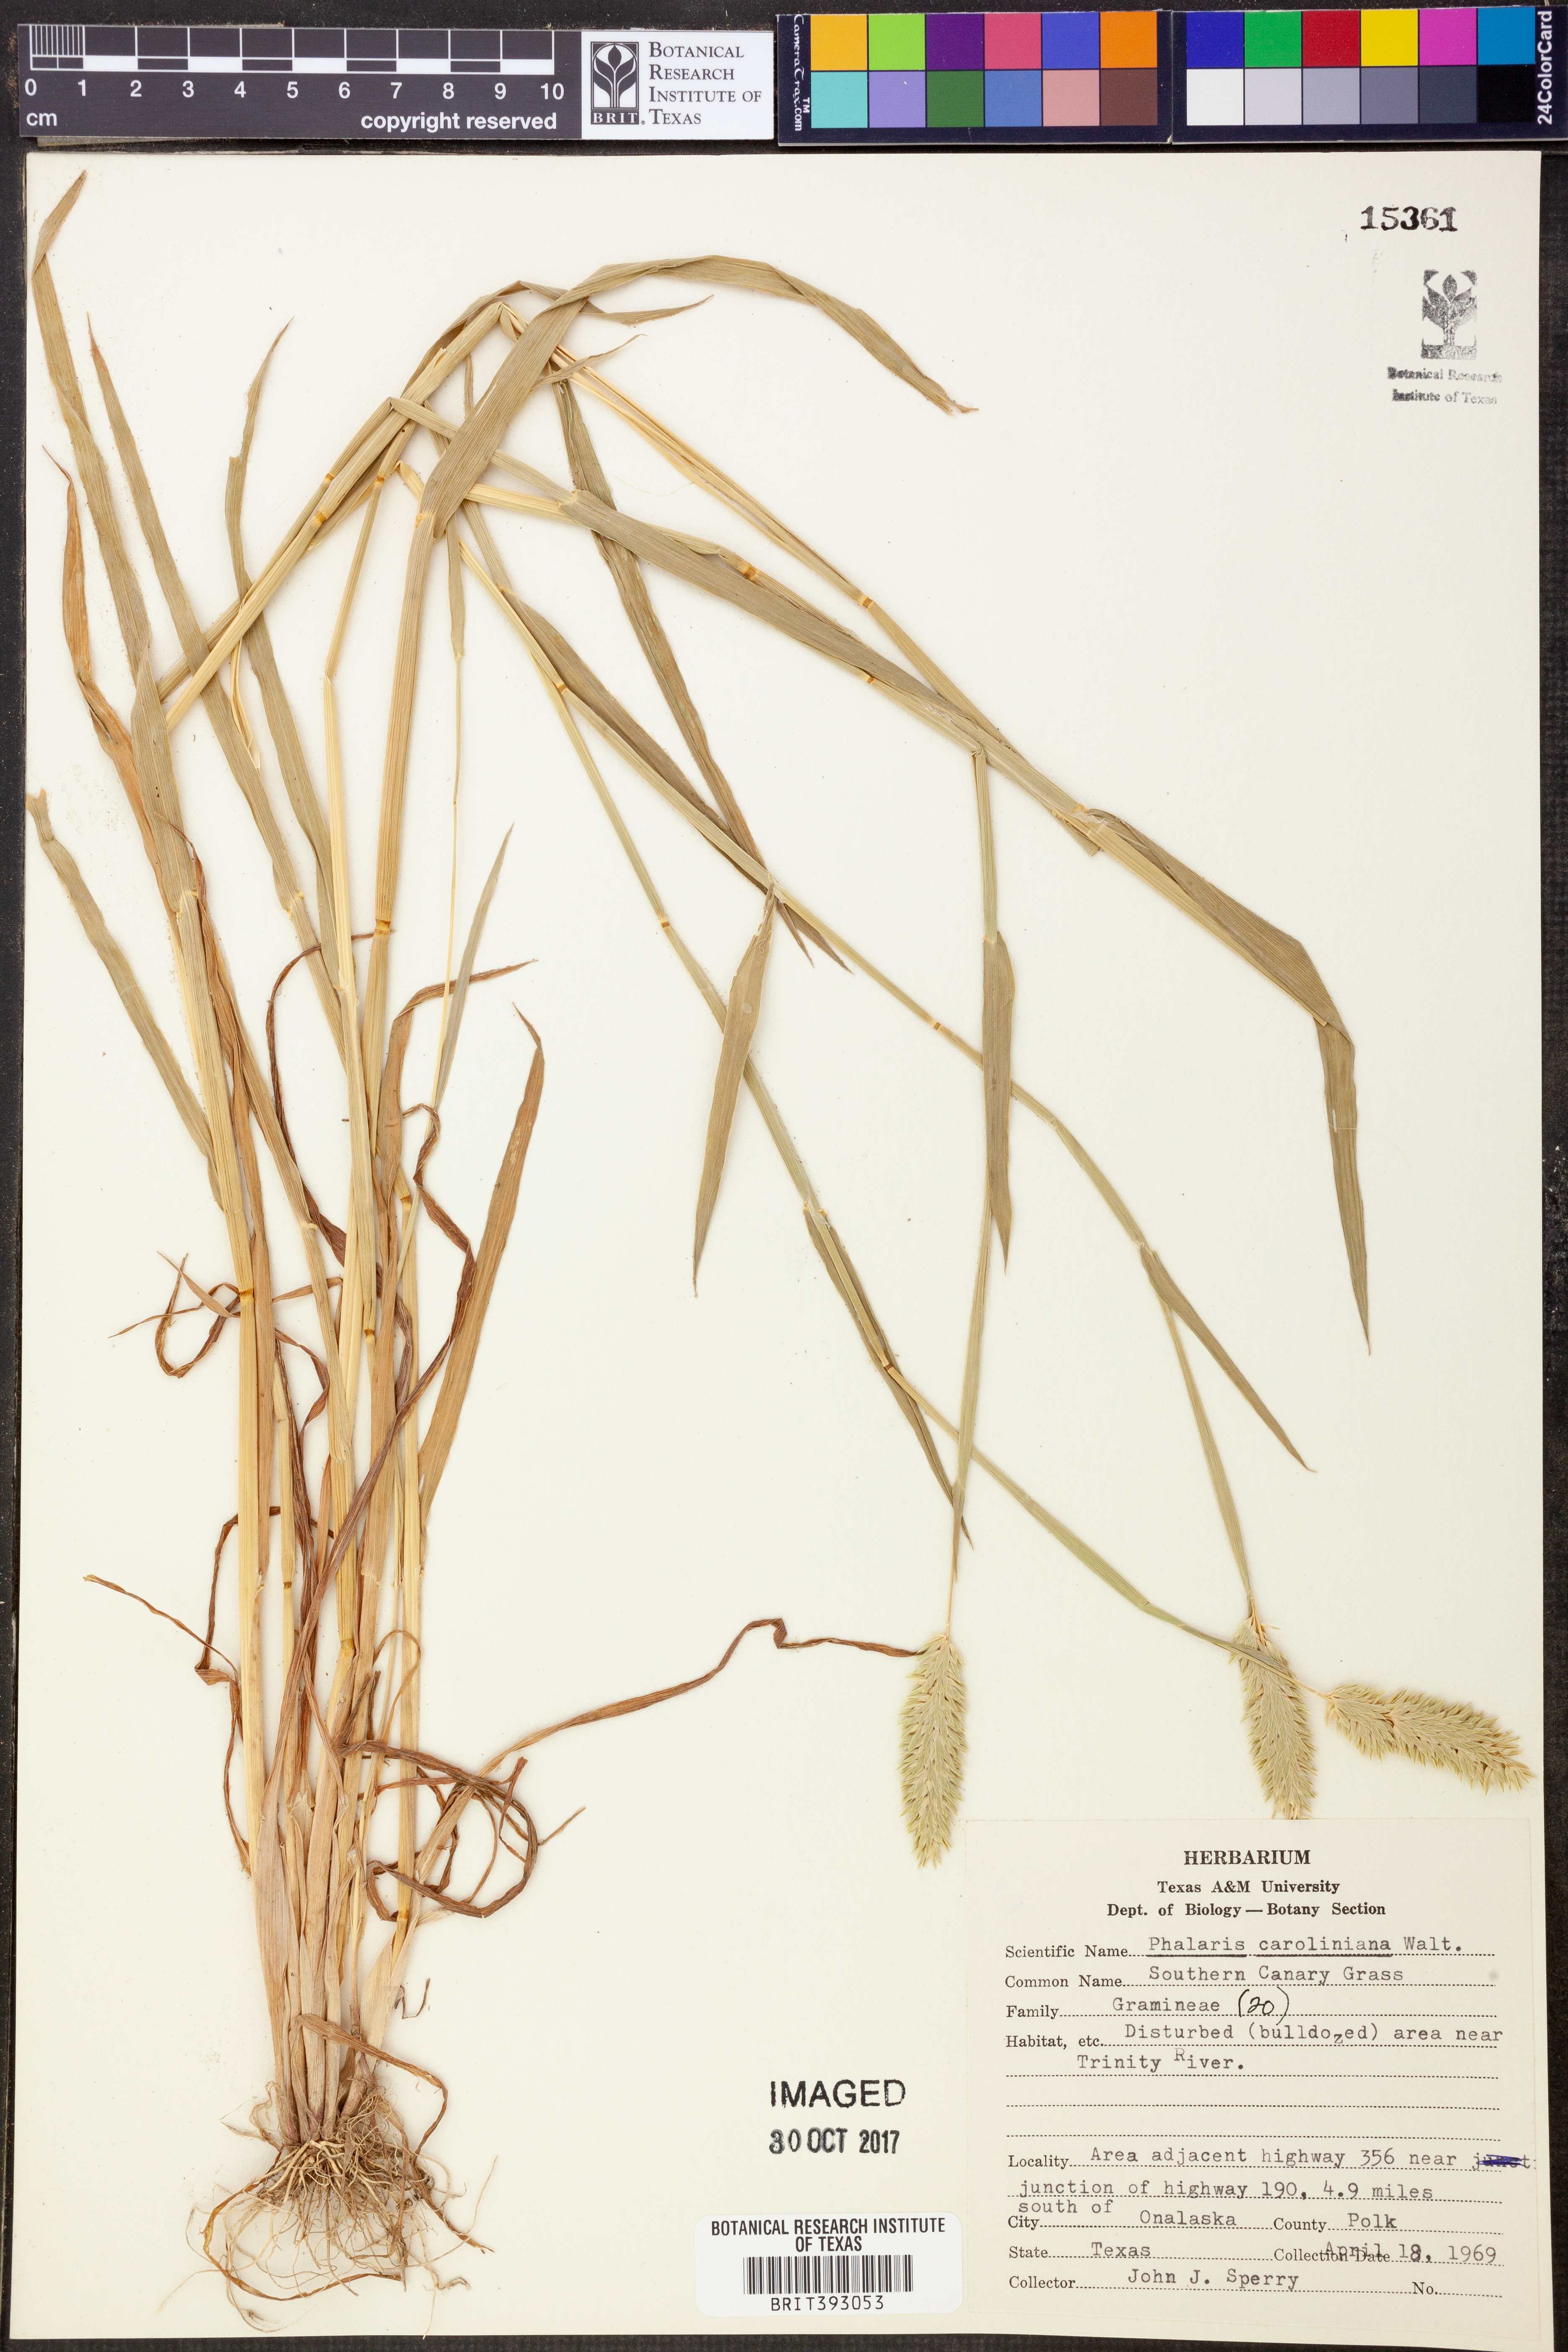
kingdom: Plantae
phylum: Tracheophyta
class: Liliopsida
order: Poales
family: Poaceae
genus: Phalaris
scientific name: Phalaris caroliniana
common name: May grass
